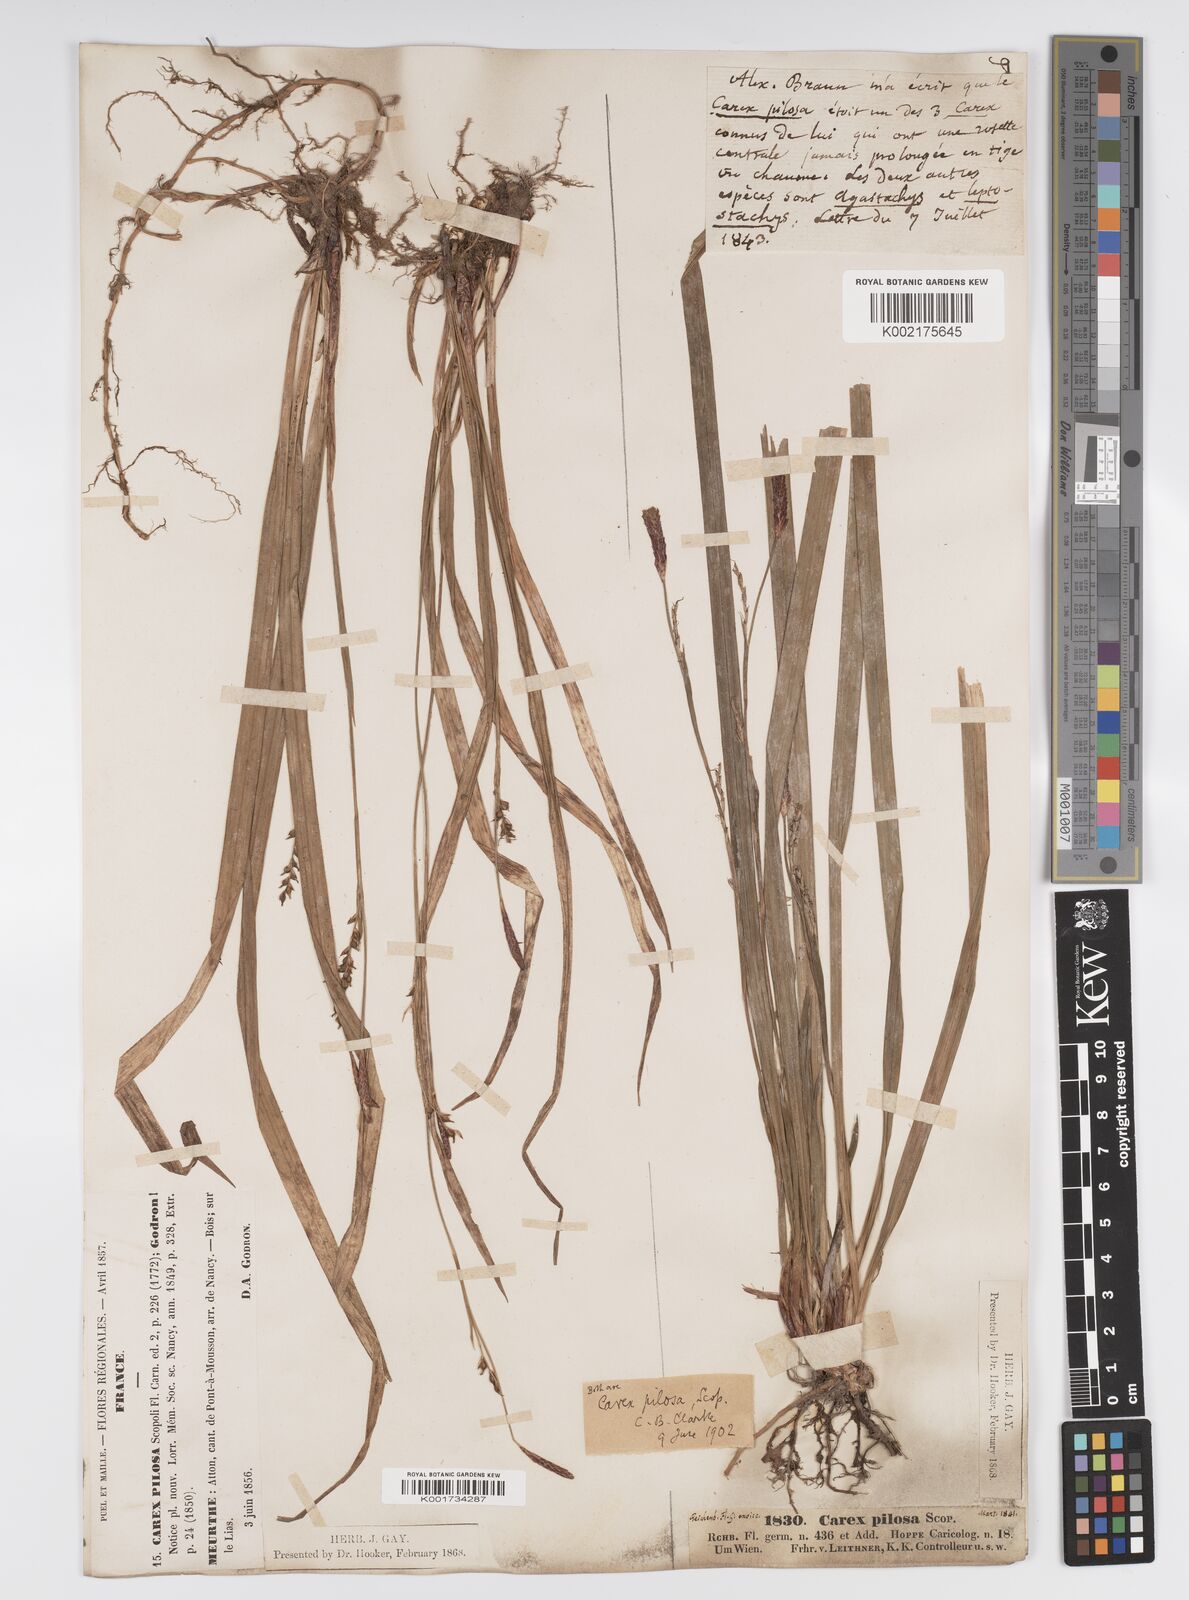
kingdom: Plantae
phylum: Tracheophyta
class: Liliopsida
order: Poales
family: Cyperaceae
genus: Carex
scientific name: Carex pilosa
